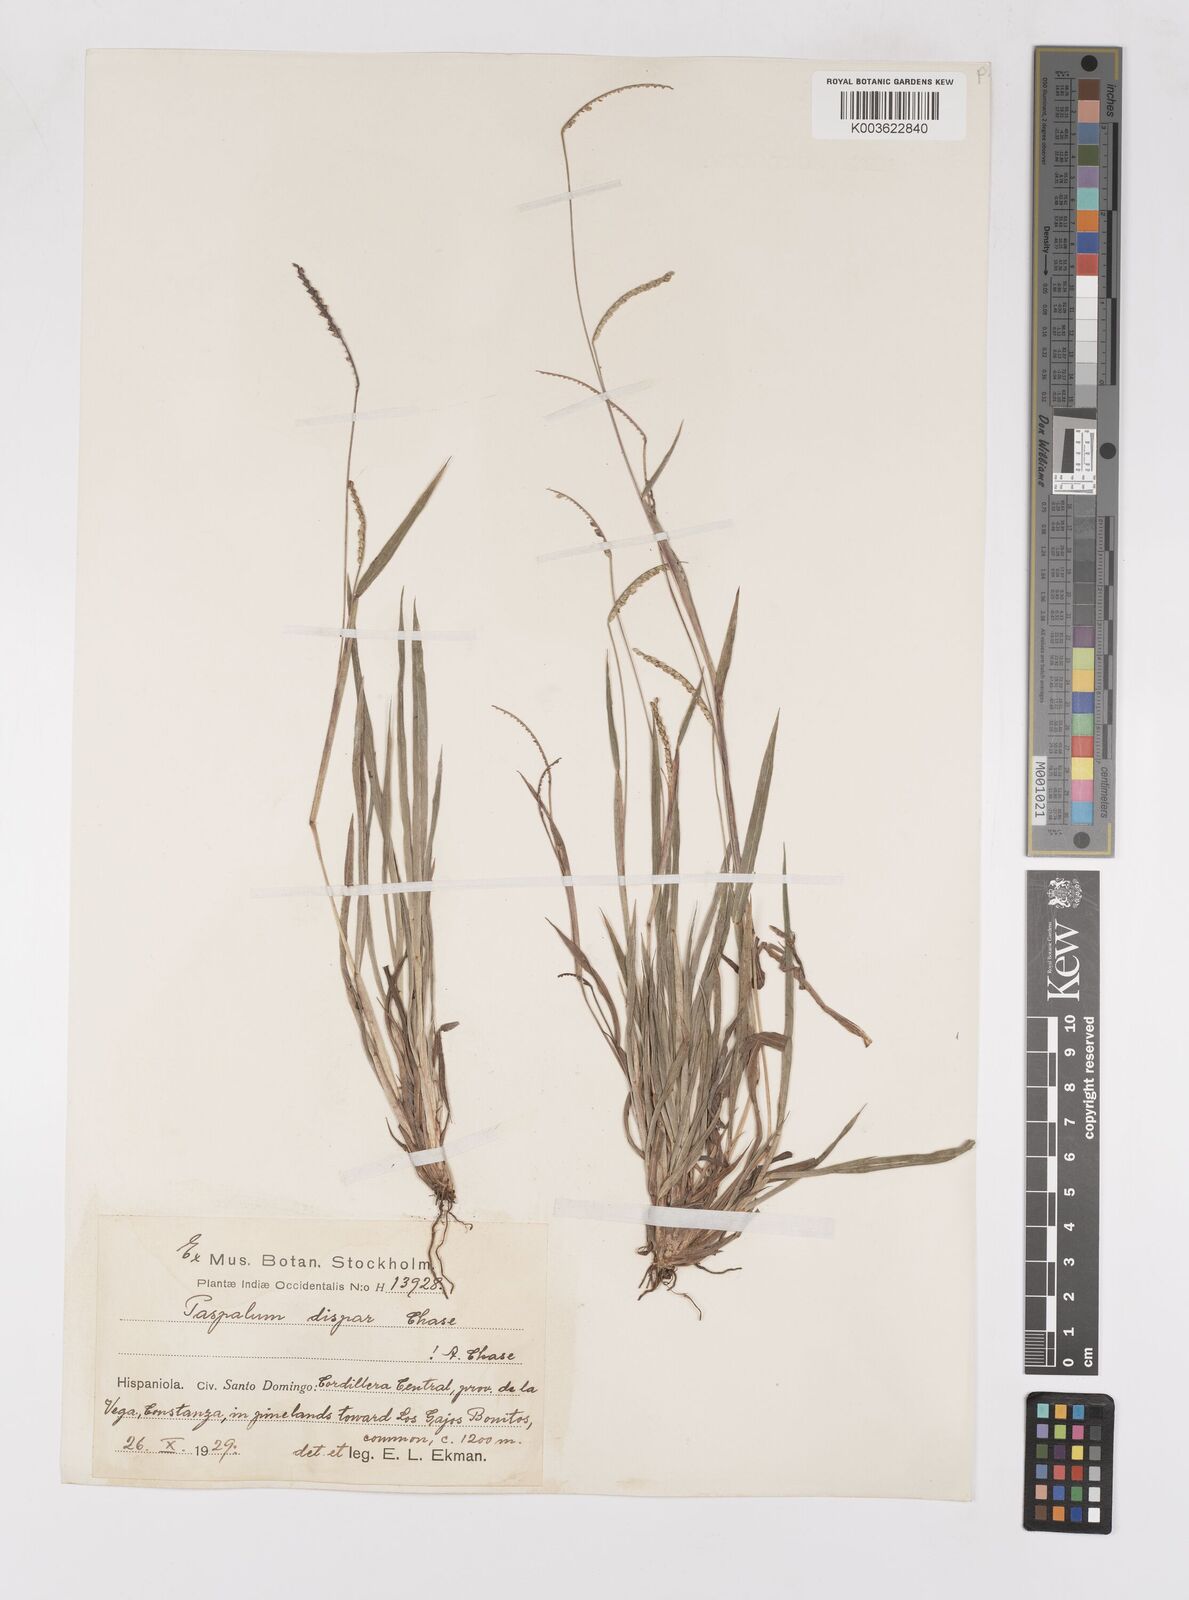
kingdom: Plantae
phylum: Tracheophyta
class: Liliopsida
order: Poales
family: Poaceae
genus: Paspalum
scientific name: Paspalum dispar
